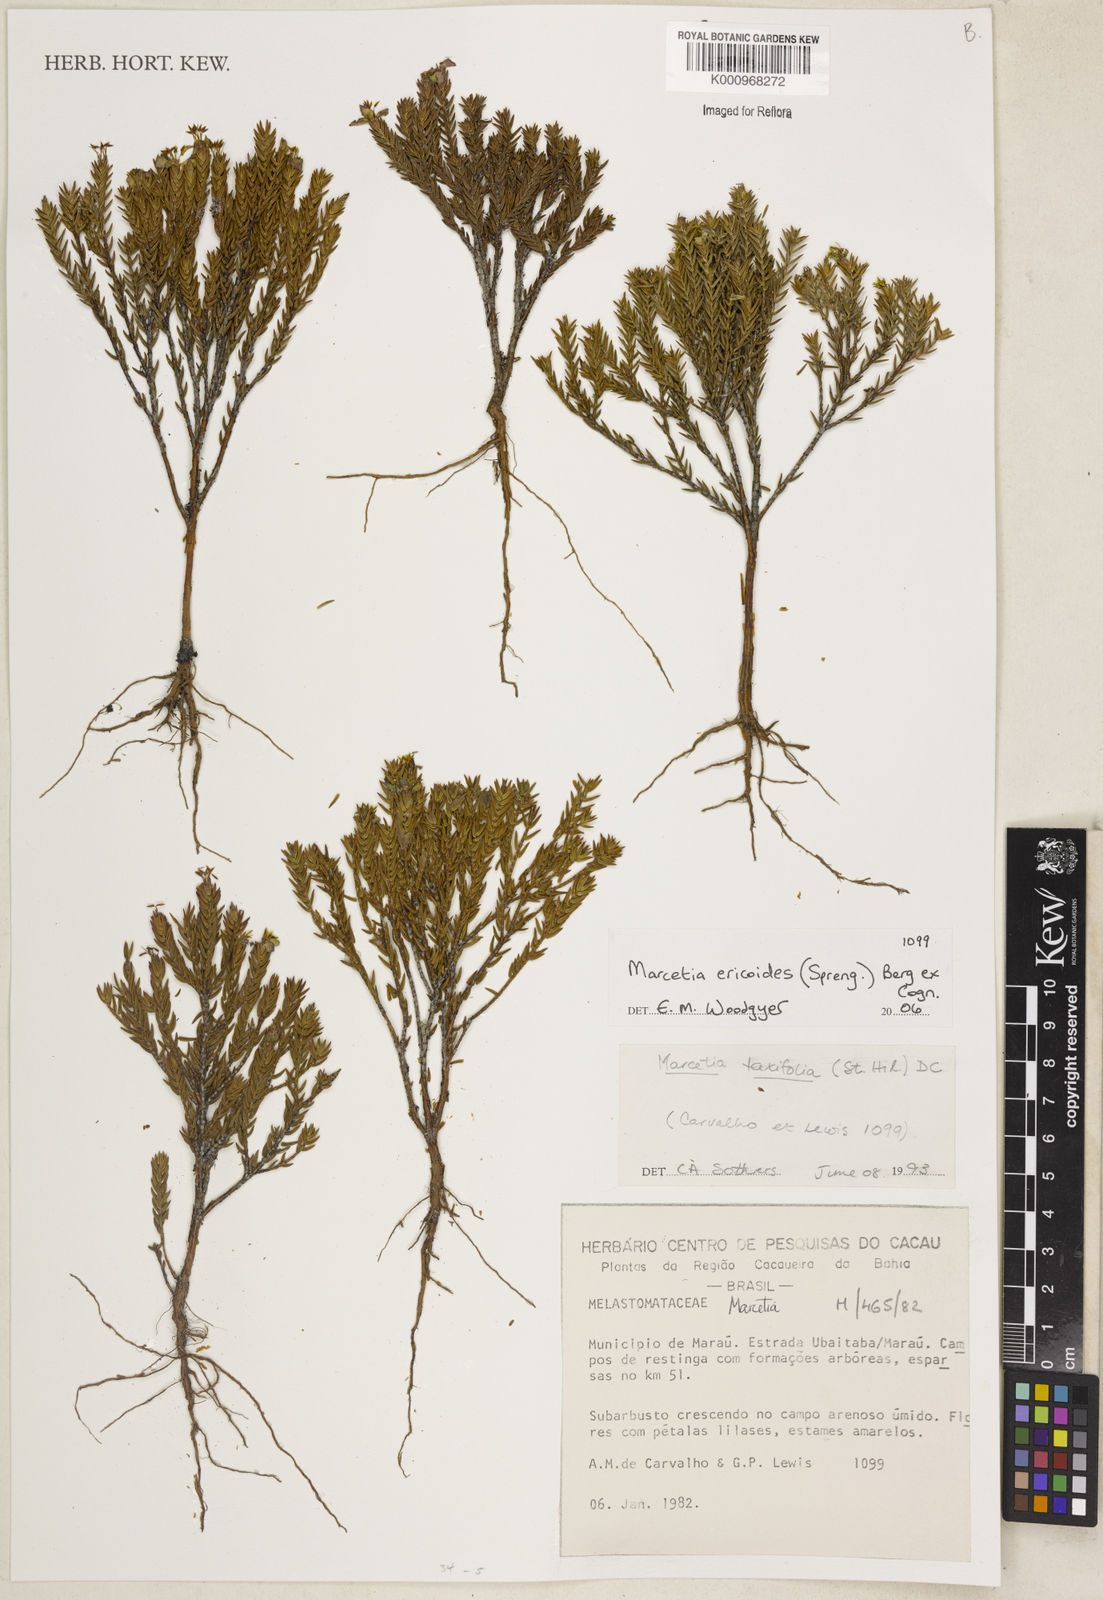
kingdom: Plantae
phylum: Tracheophyta
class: Magnoliopsida
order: Myrtales
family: Melastomataceae
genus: Marcetia
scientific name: Marcetia ericoides
